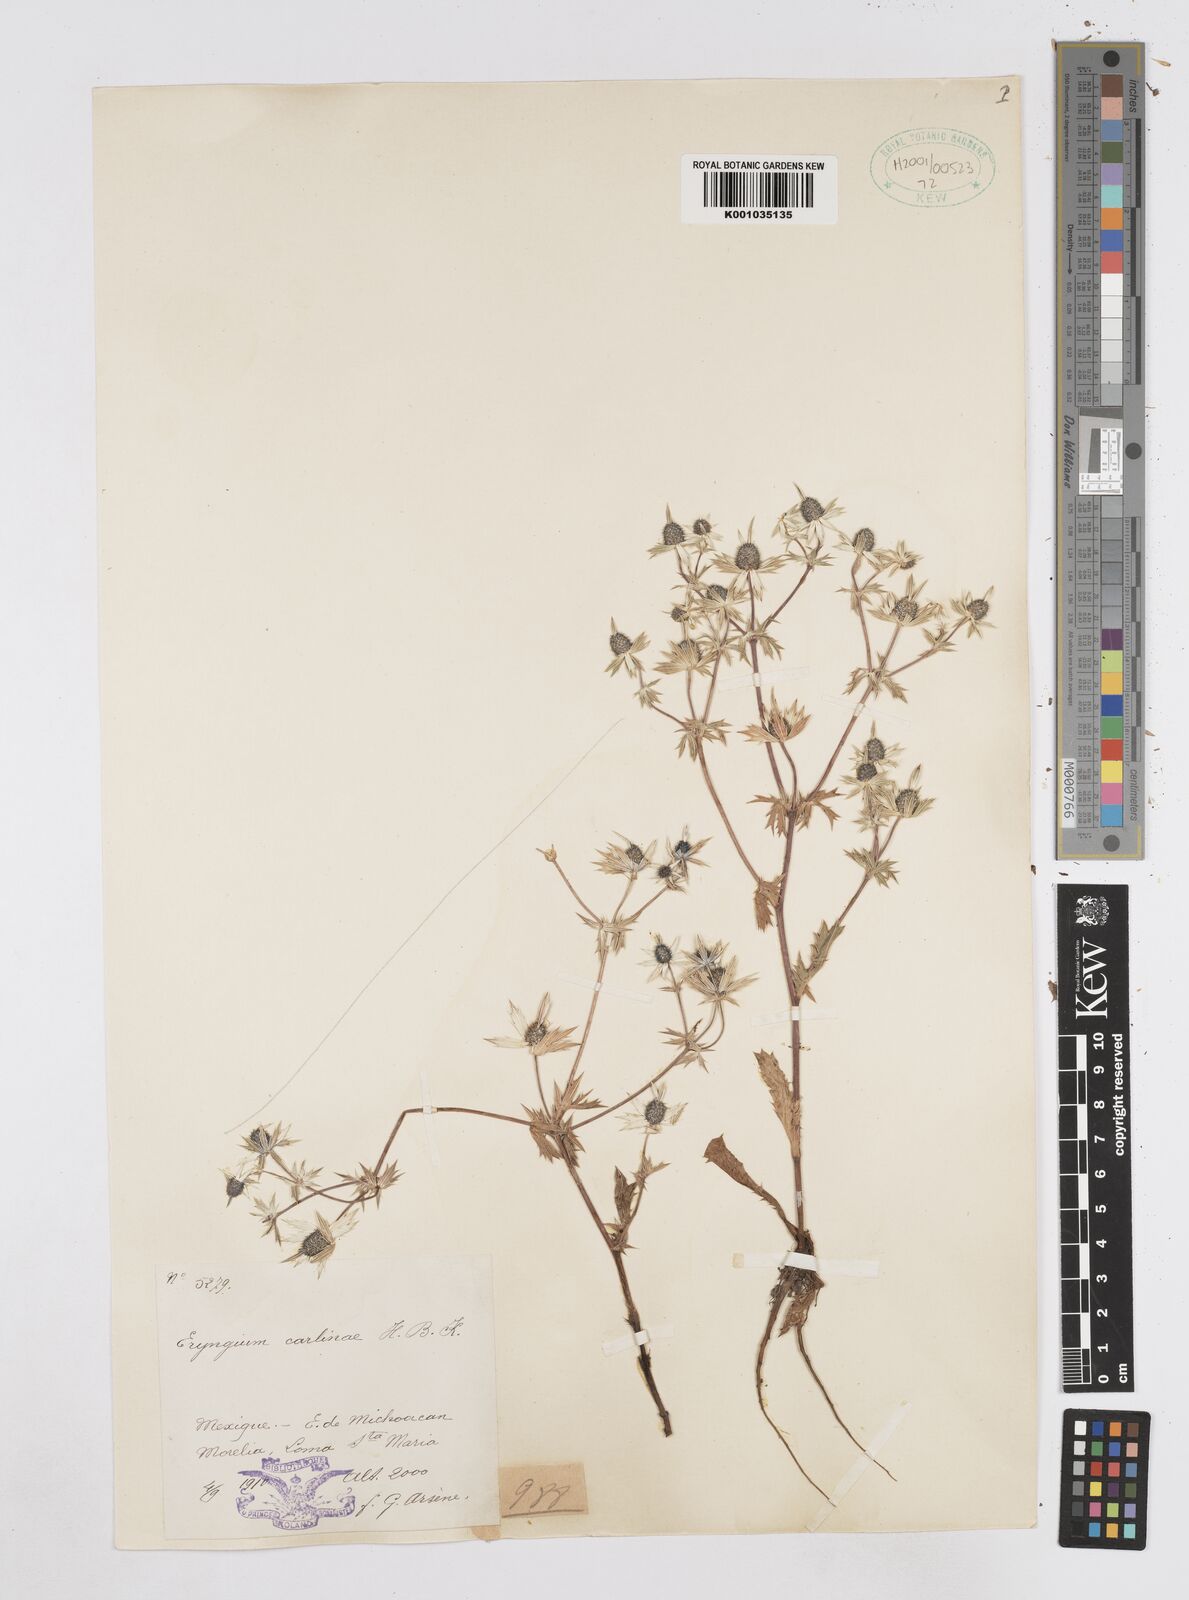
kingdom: Plantae
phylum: Tracheophyta
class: Magnoliopsida
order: Apiales
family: Apiaceae
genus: Eryngium
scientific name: Eryngium carlinae
